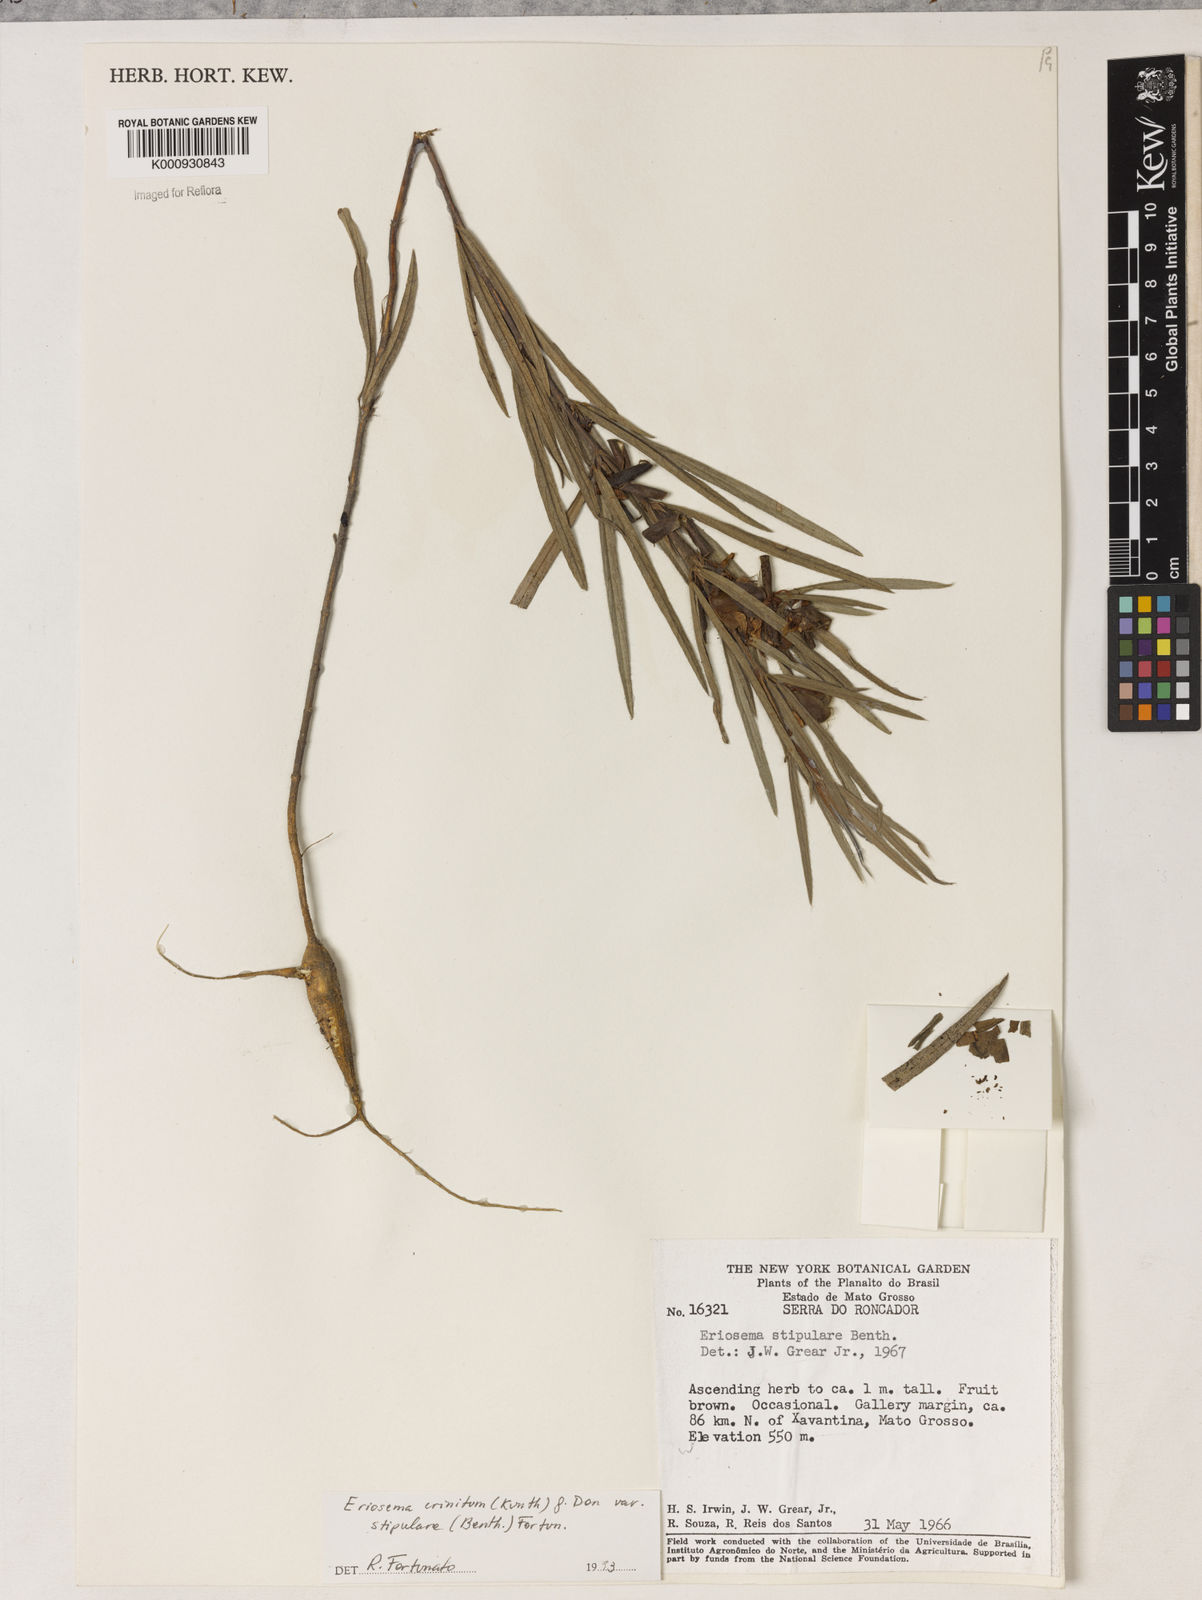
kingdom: Plantae
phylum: Tracheophyta
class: Magnoliopsida
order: Fabales
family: Fabaceae
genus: Eriosema
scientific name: Eriosema crinitum
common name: Sand pea
